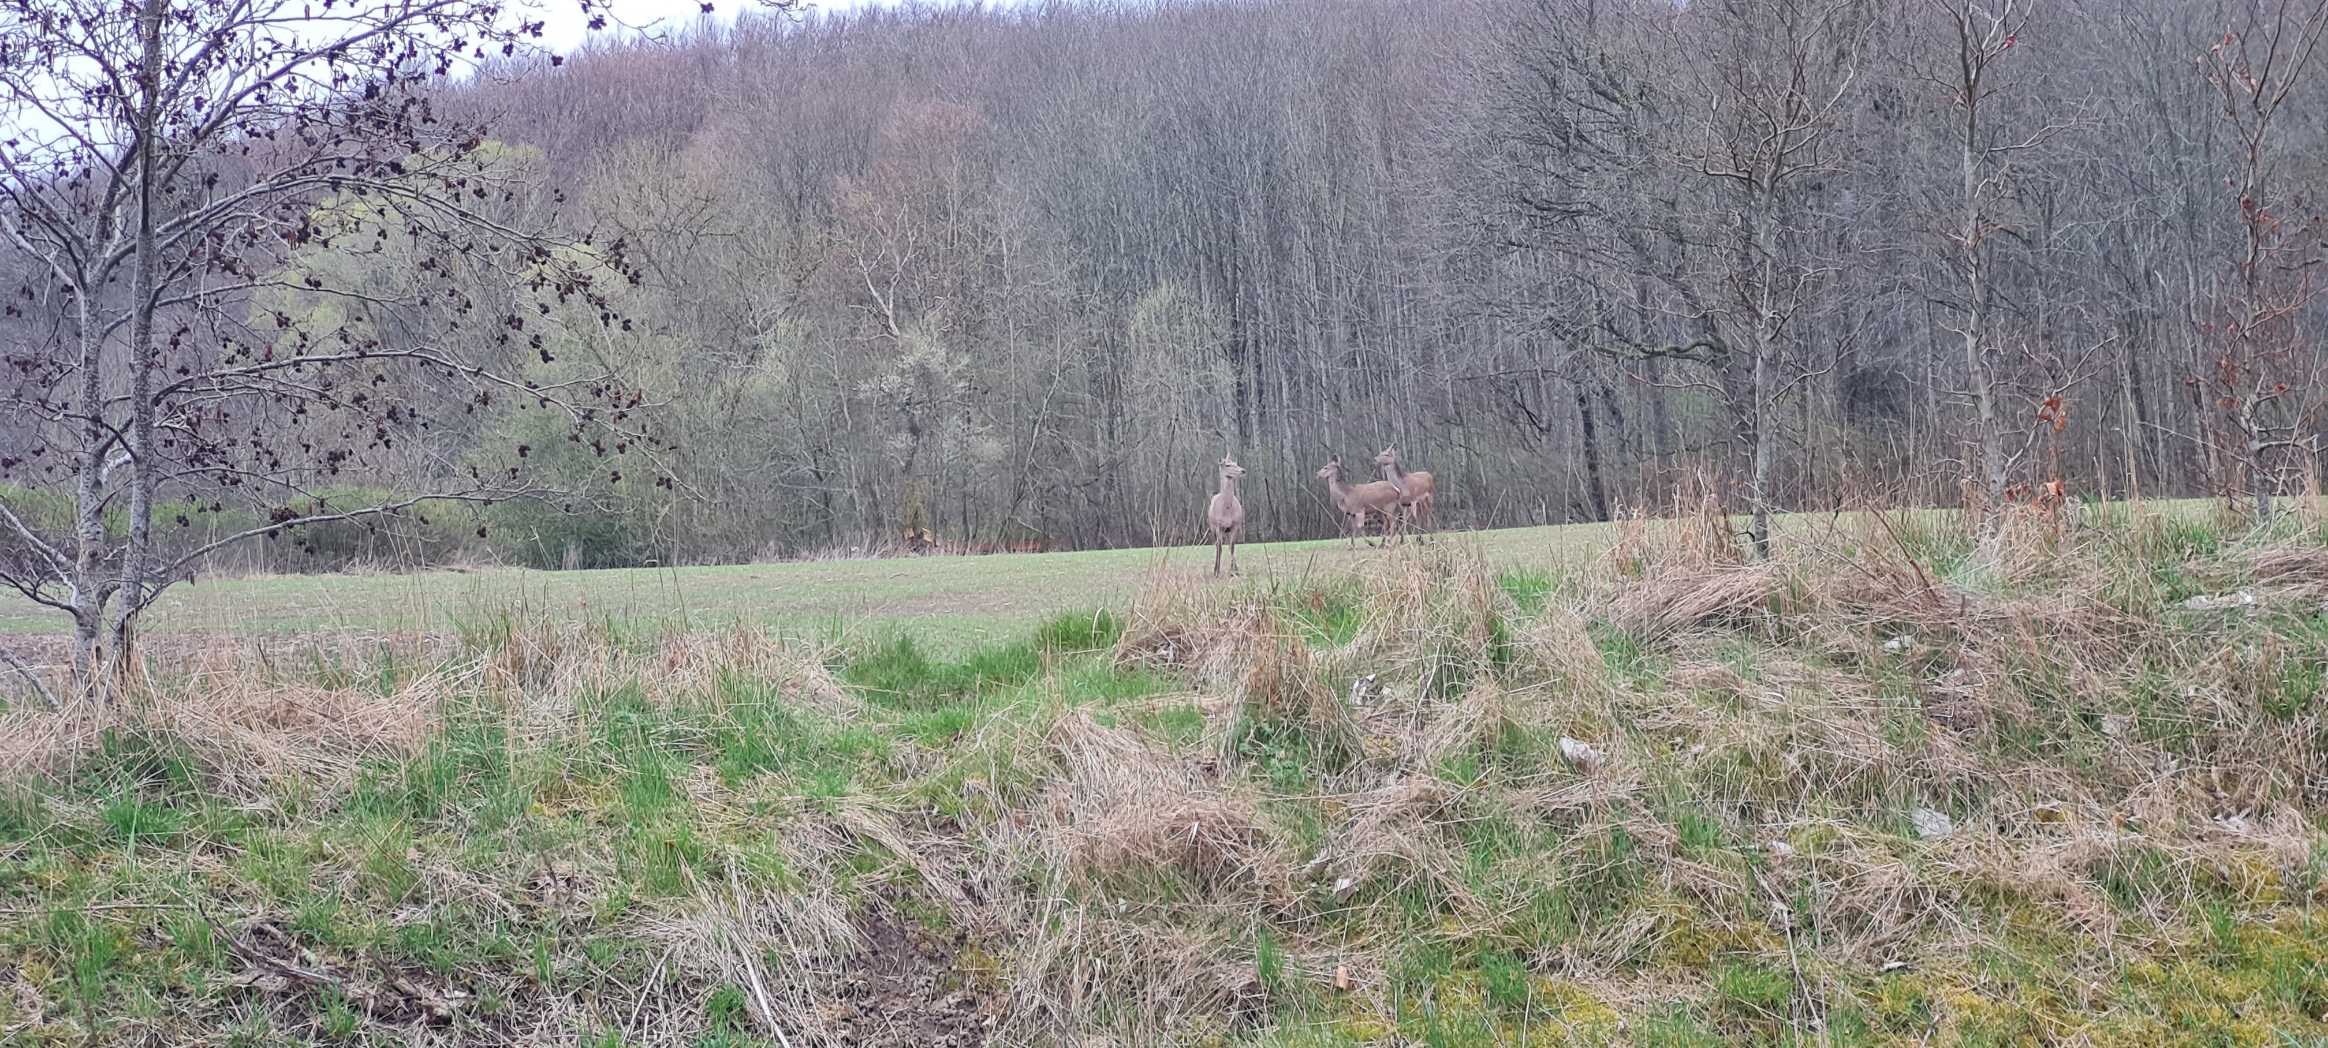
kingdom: Animalia
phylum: Chordata
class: Mammalia
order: Artiodactyla
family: Cervidae
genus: Cervus
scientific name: Cervus elaphus
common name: Krondyr
